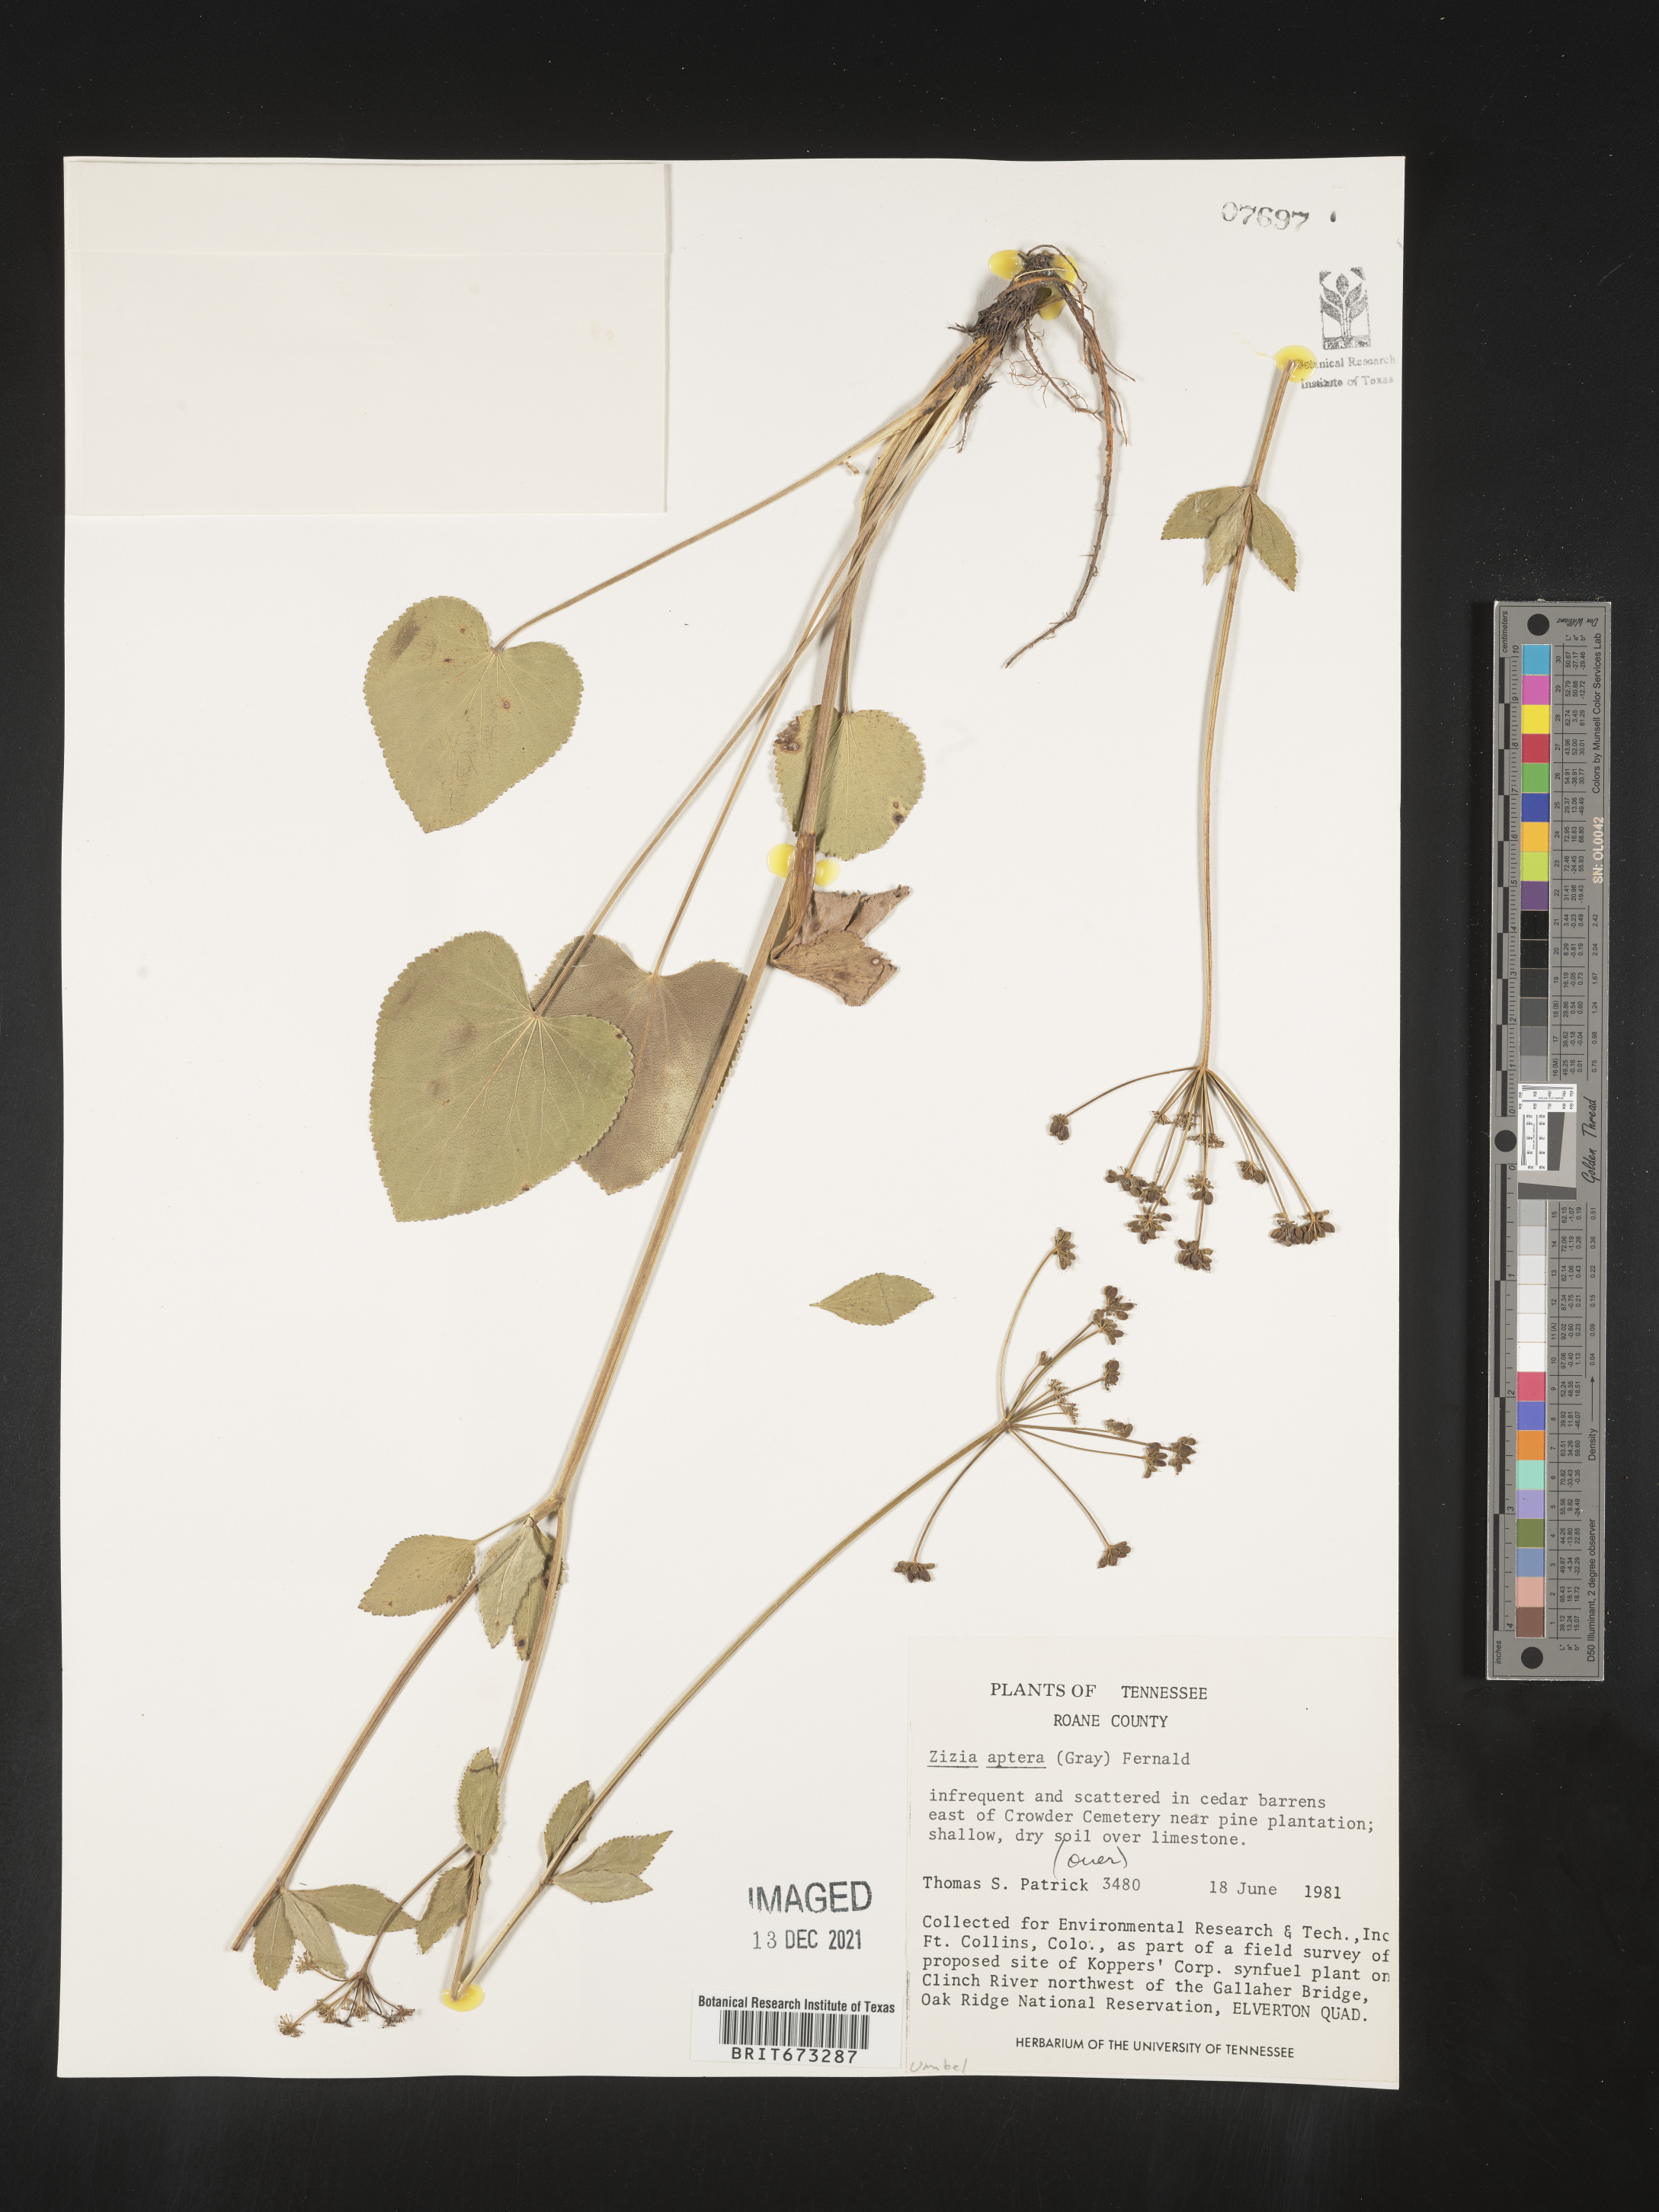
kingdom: Plantae
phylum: Tracheophyta
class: Magnoliopsida
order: Apiales
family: Apiaceae
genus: Zizia
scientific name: Zizia aptera
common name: Heart-leaved alexanders
